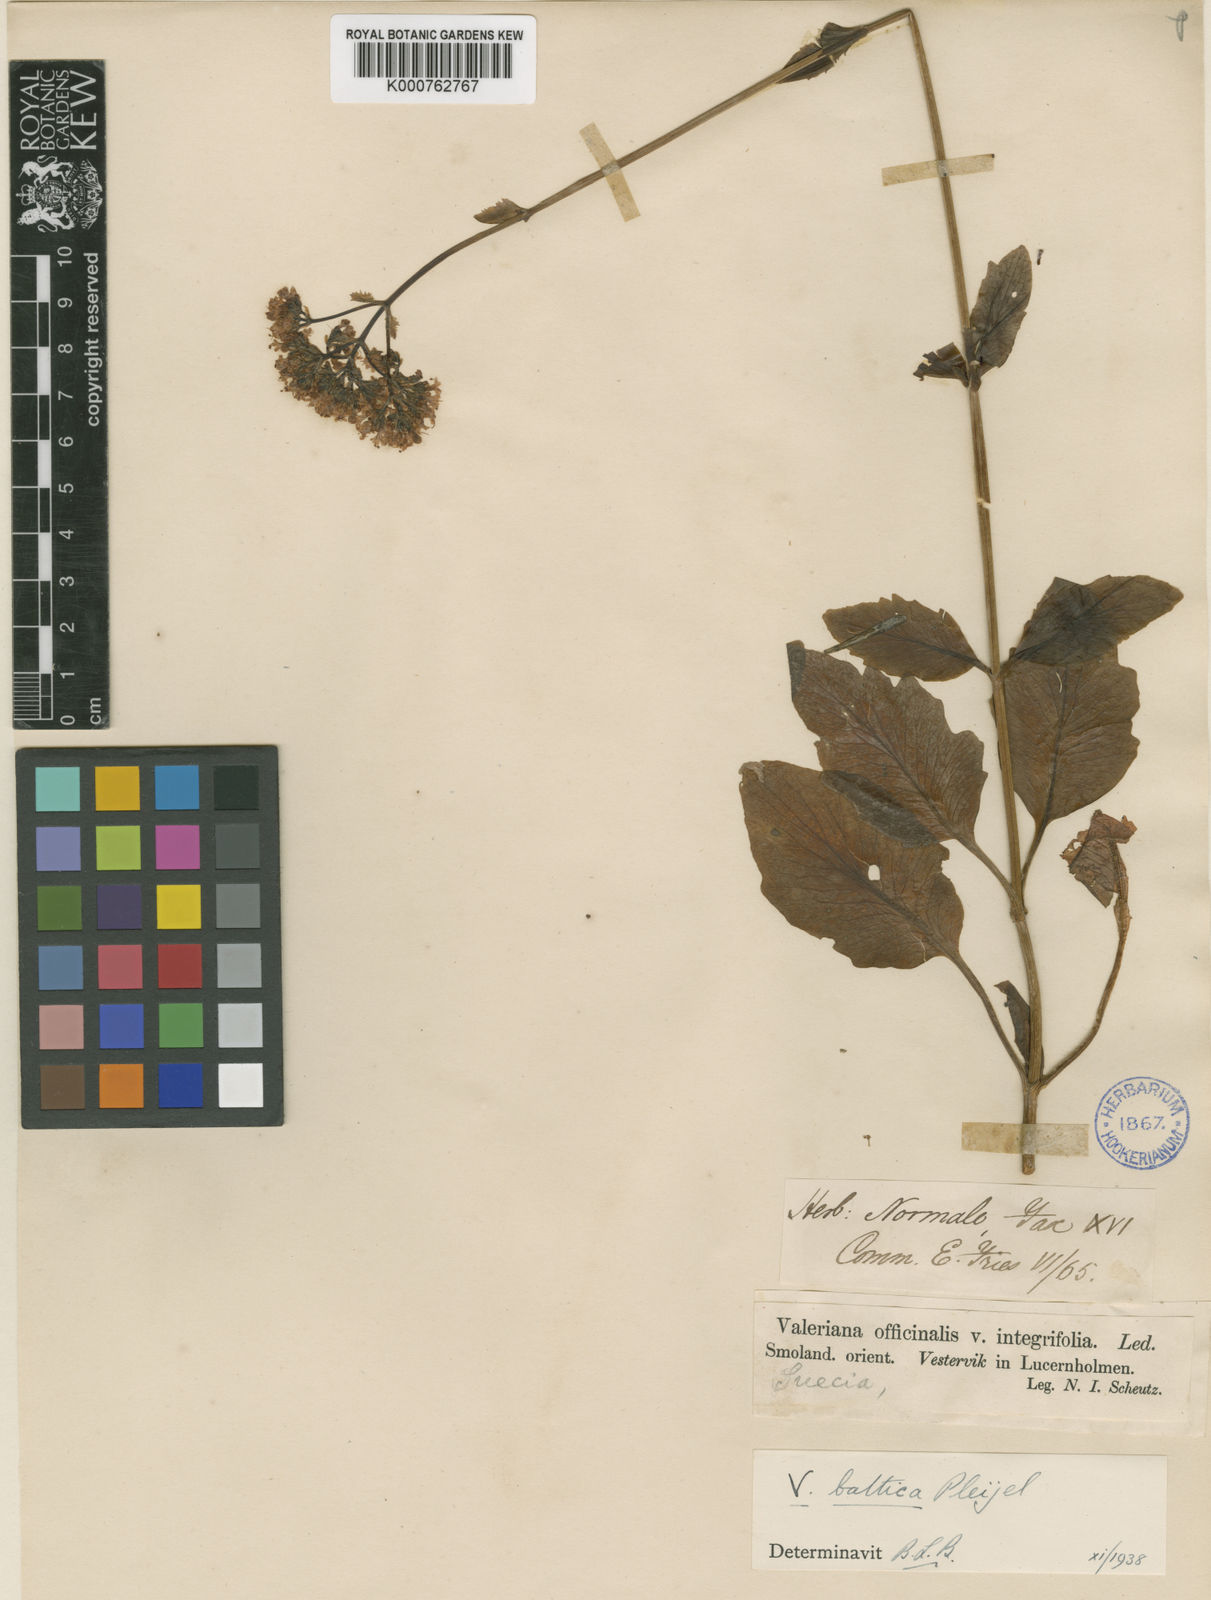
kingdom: Plantae
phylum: Tracheophyta
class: Magnoliopsida
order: Dipsacales
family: Caprifoliaceae
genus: Valeriana
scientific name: Valeriana officinalis
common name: Common valerian
